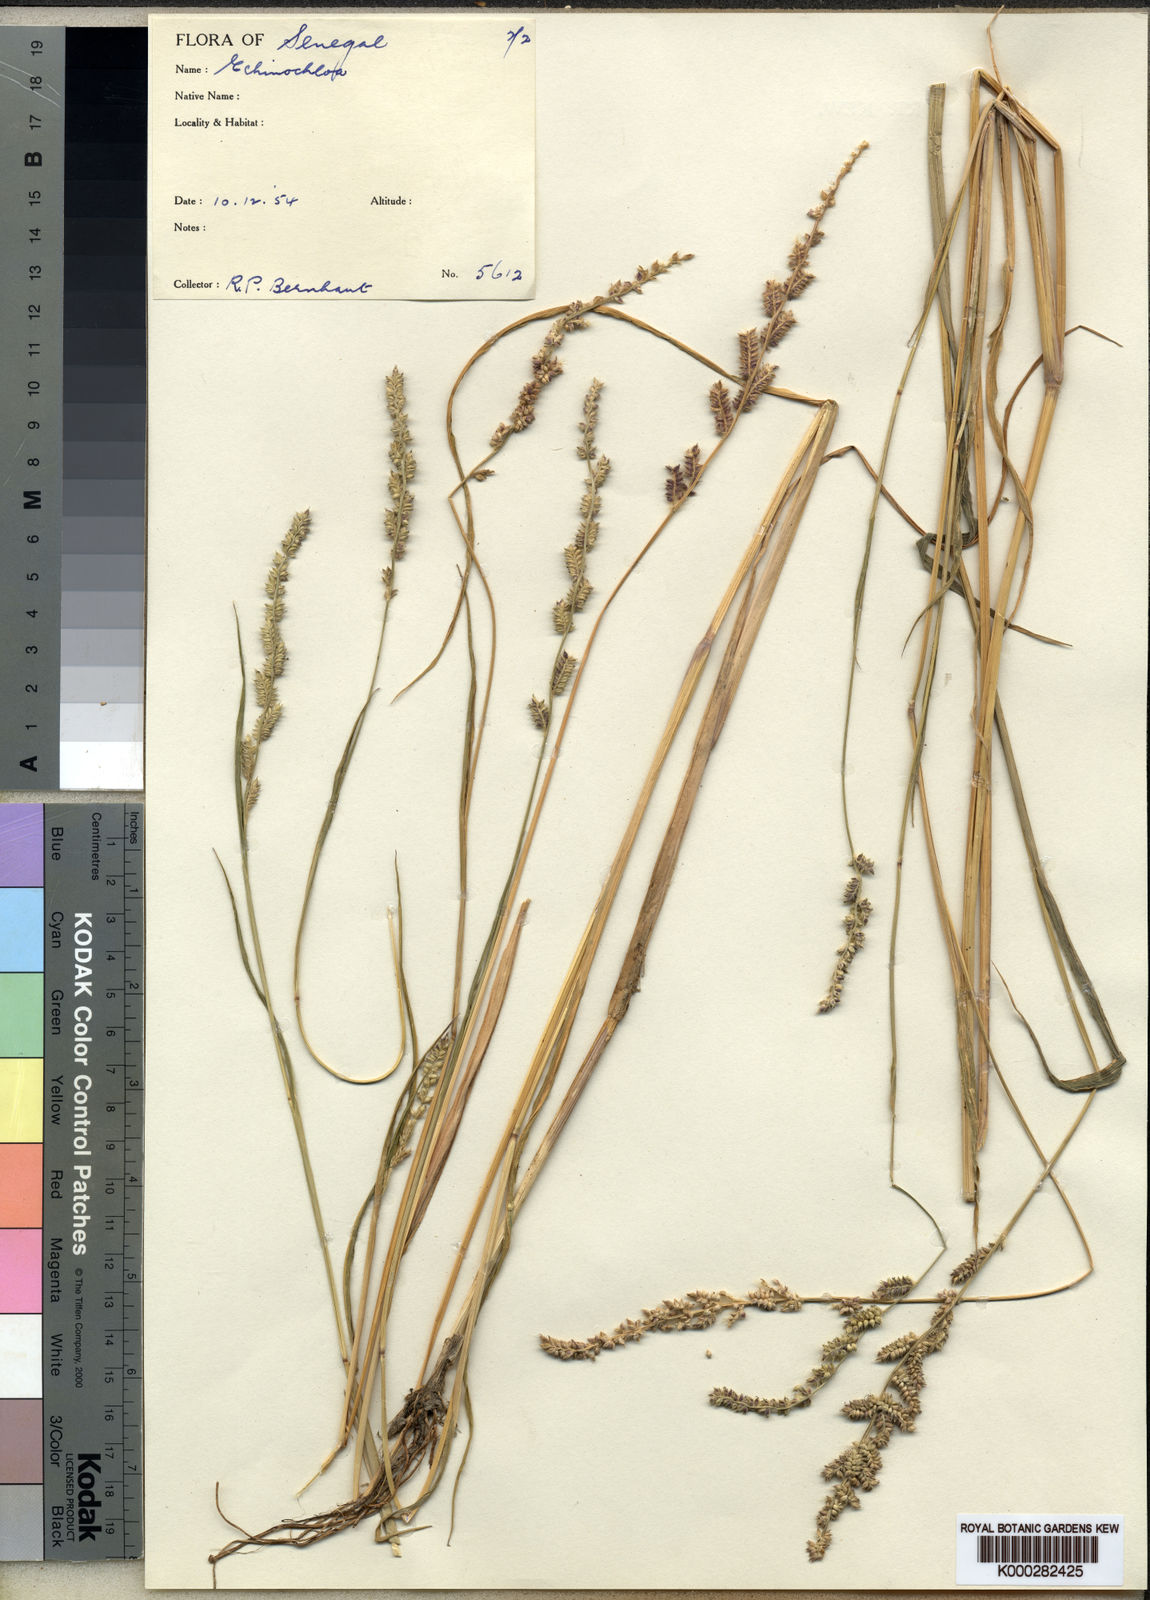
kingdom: Plantae
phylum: Tracheophyta
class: Liliopsida
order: Poales
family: Poaceae
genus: Echinochloa
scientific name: Echinochloa pyramidalis
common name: Antelope grass
